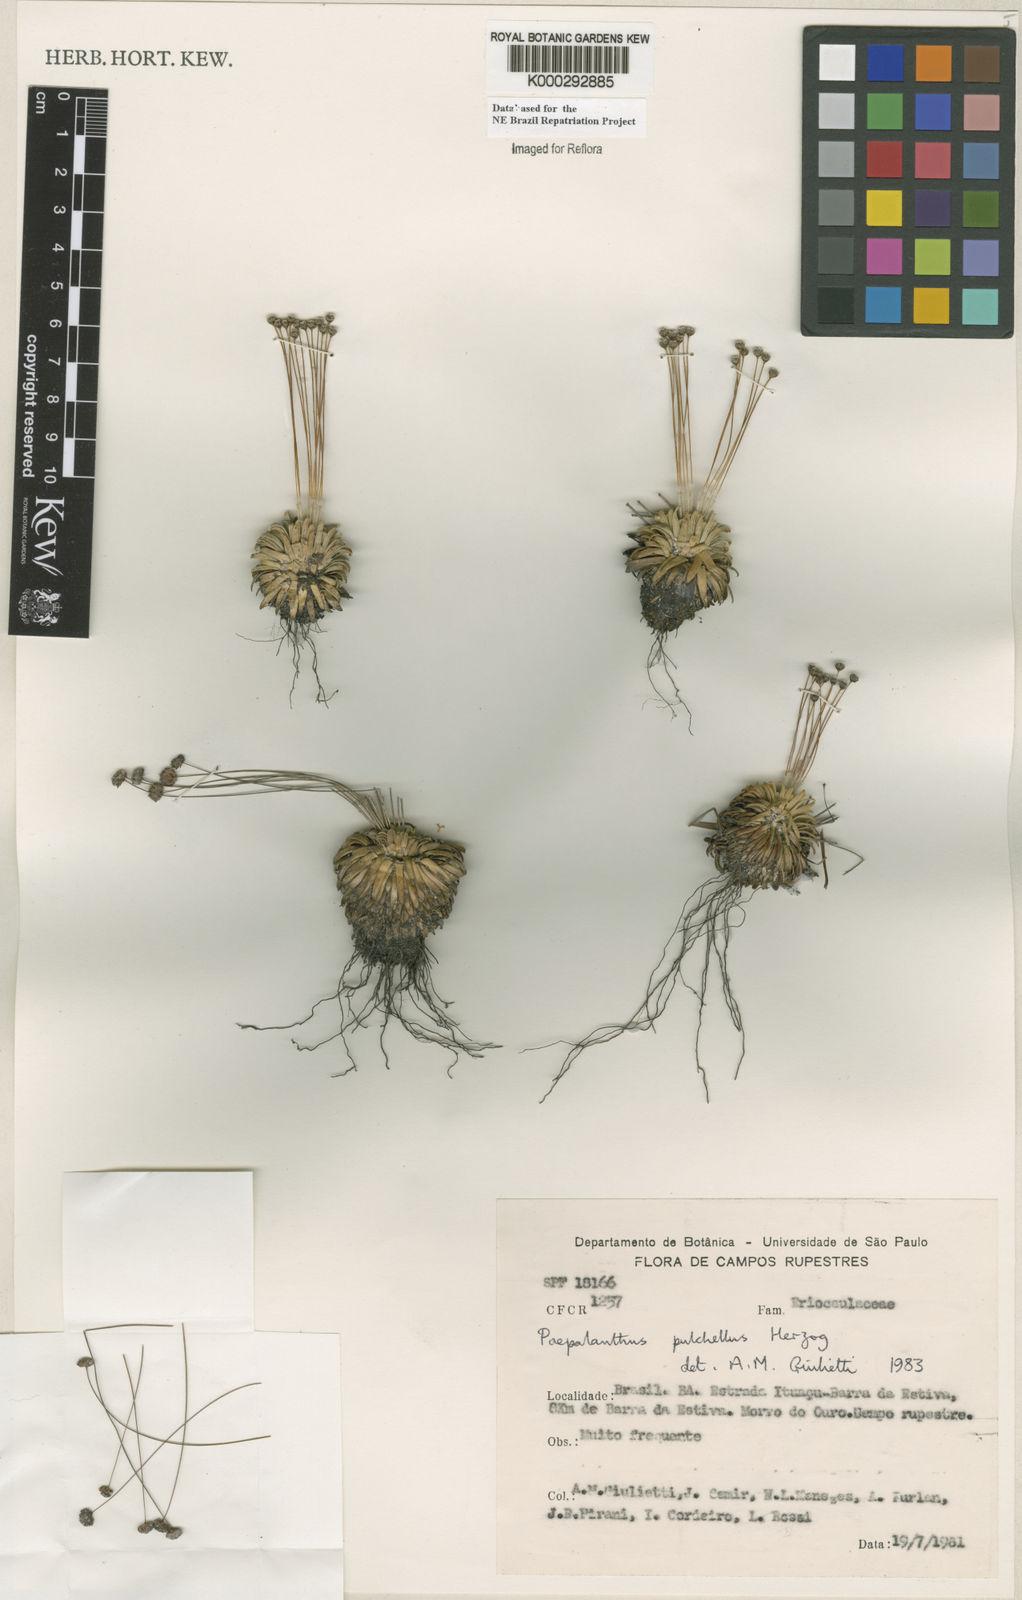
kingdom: Plantae
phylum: Tracheophyta
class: Liliopsida
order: Poales
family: Eriocaulaceae
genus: Paepalanthus
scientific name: Paepalanthus pulchellus
